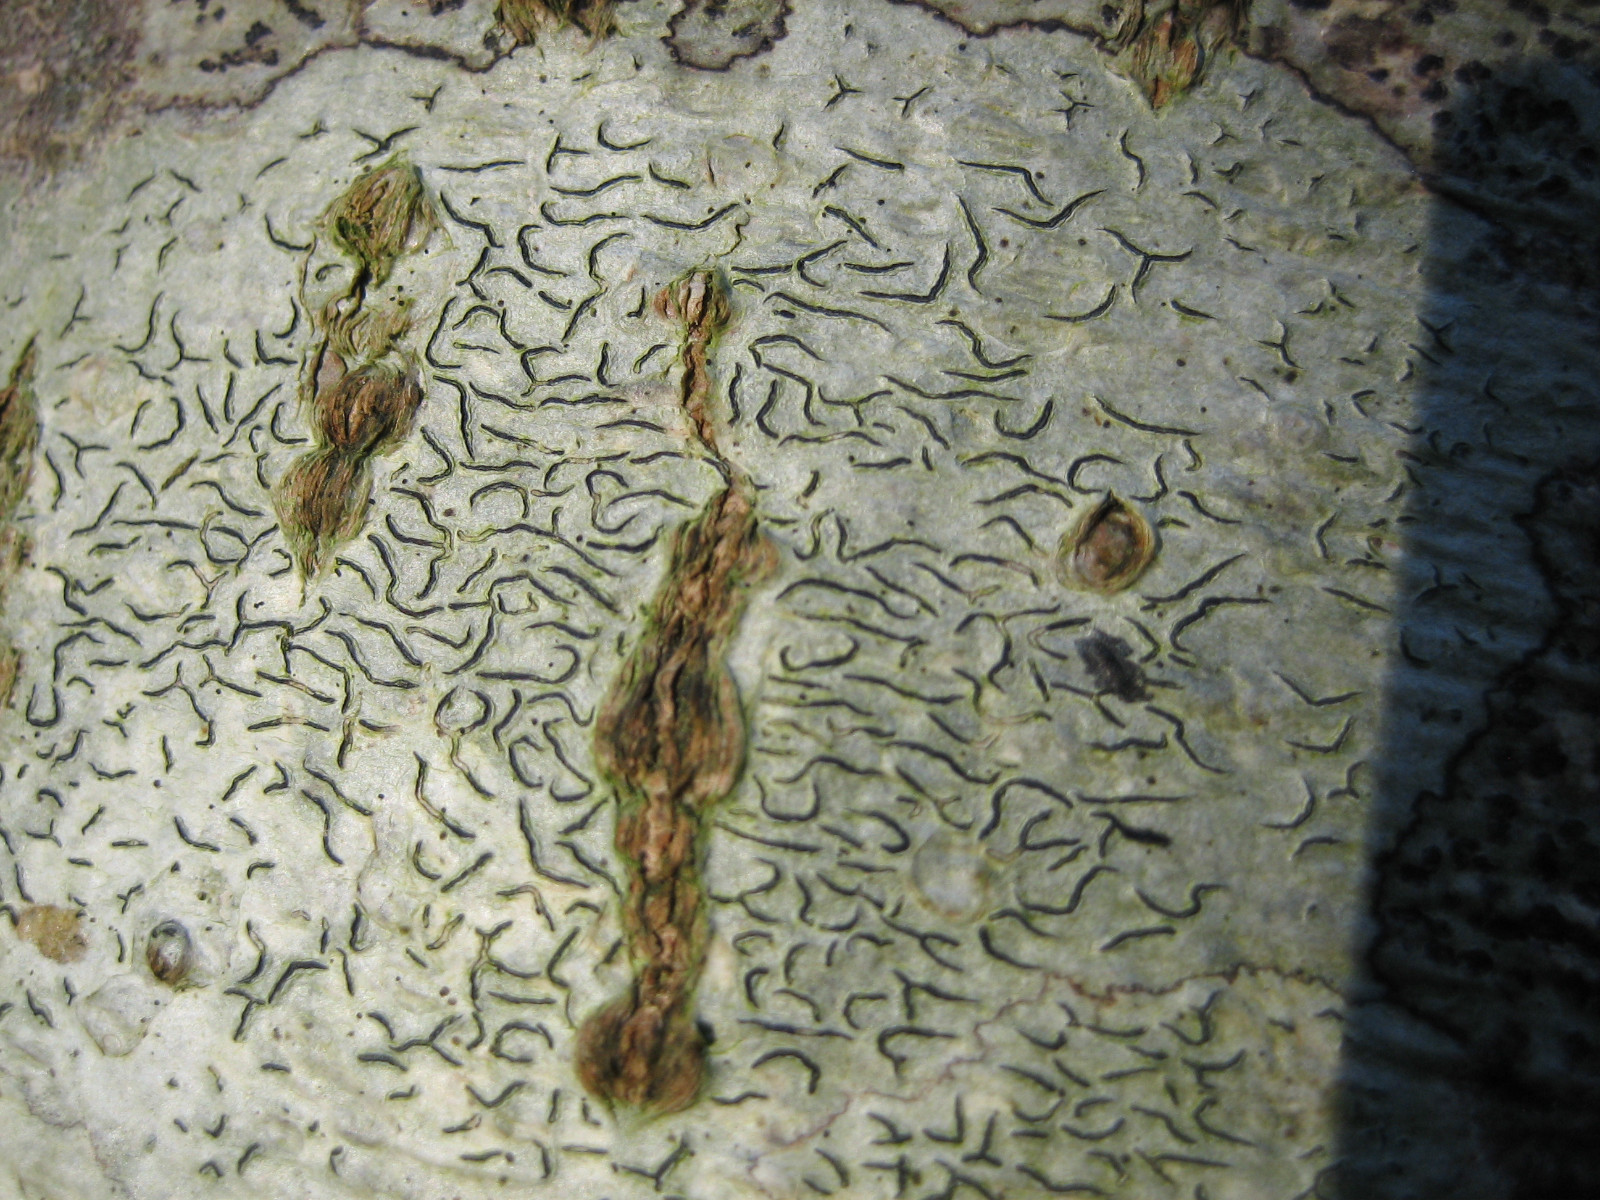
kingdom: Fungi
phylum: Ascomycota
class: Lecanoromycetes
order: Ostropales
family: Graphidaceae
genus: Graphis
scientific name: Graphis scripta
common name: almindelig skriftlav
